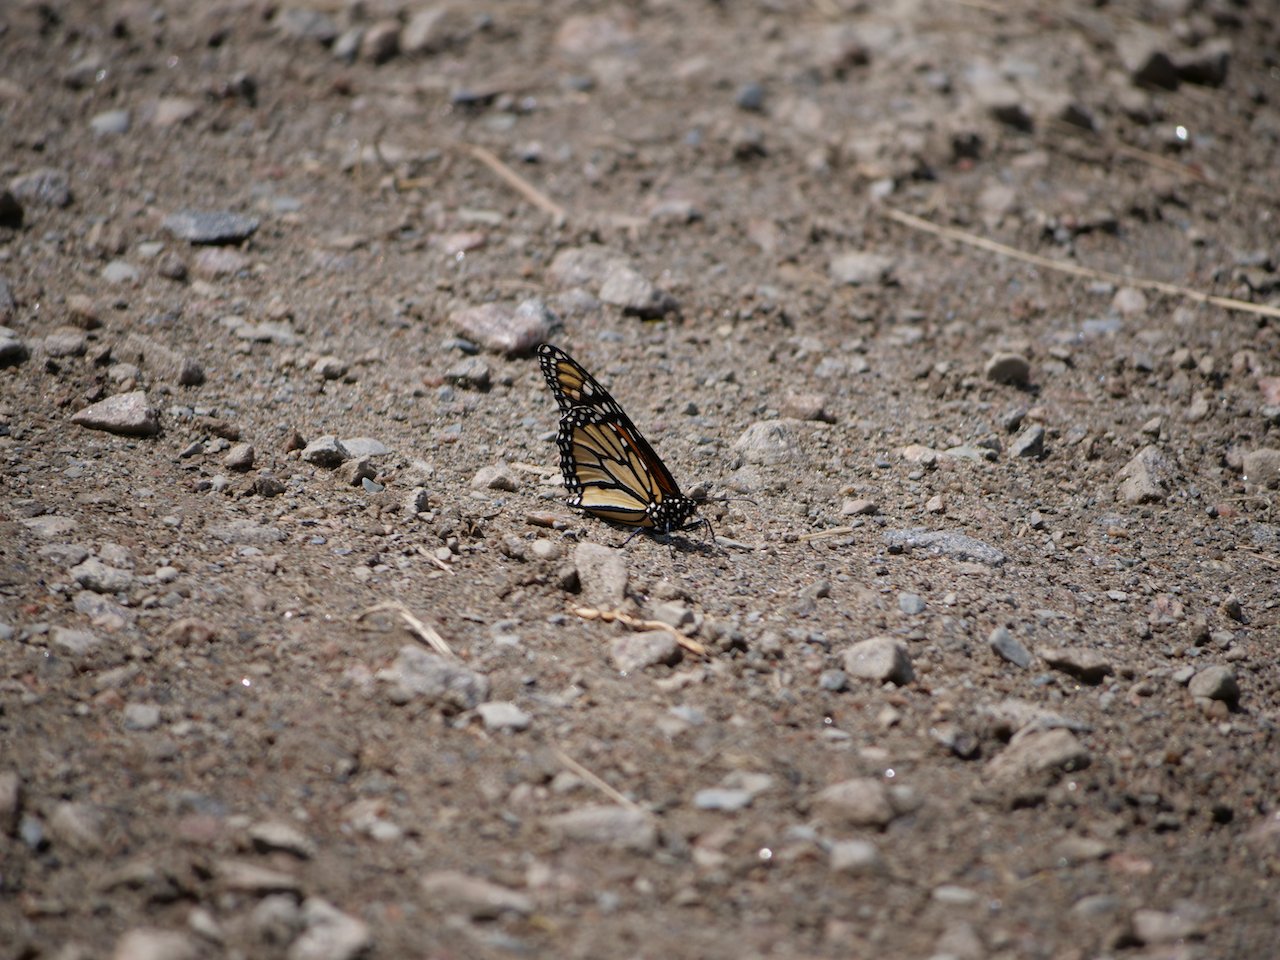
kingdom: Animalia
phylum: Arthropoda
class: Insecta
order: Lepidoptera
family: Nymphalidae
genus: Danaus
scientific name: Danaus plexippus
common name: Monarch
